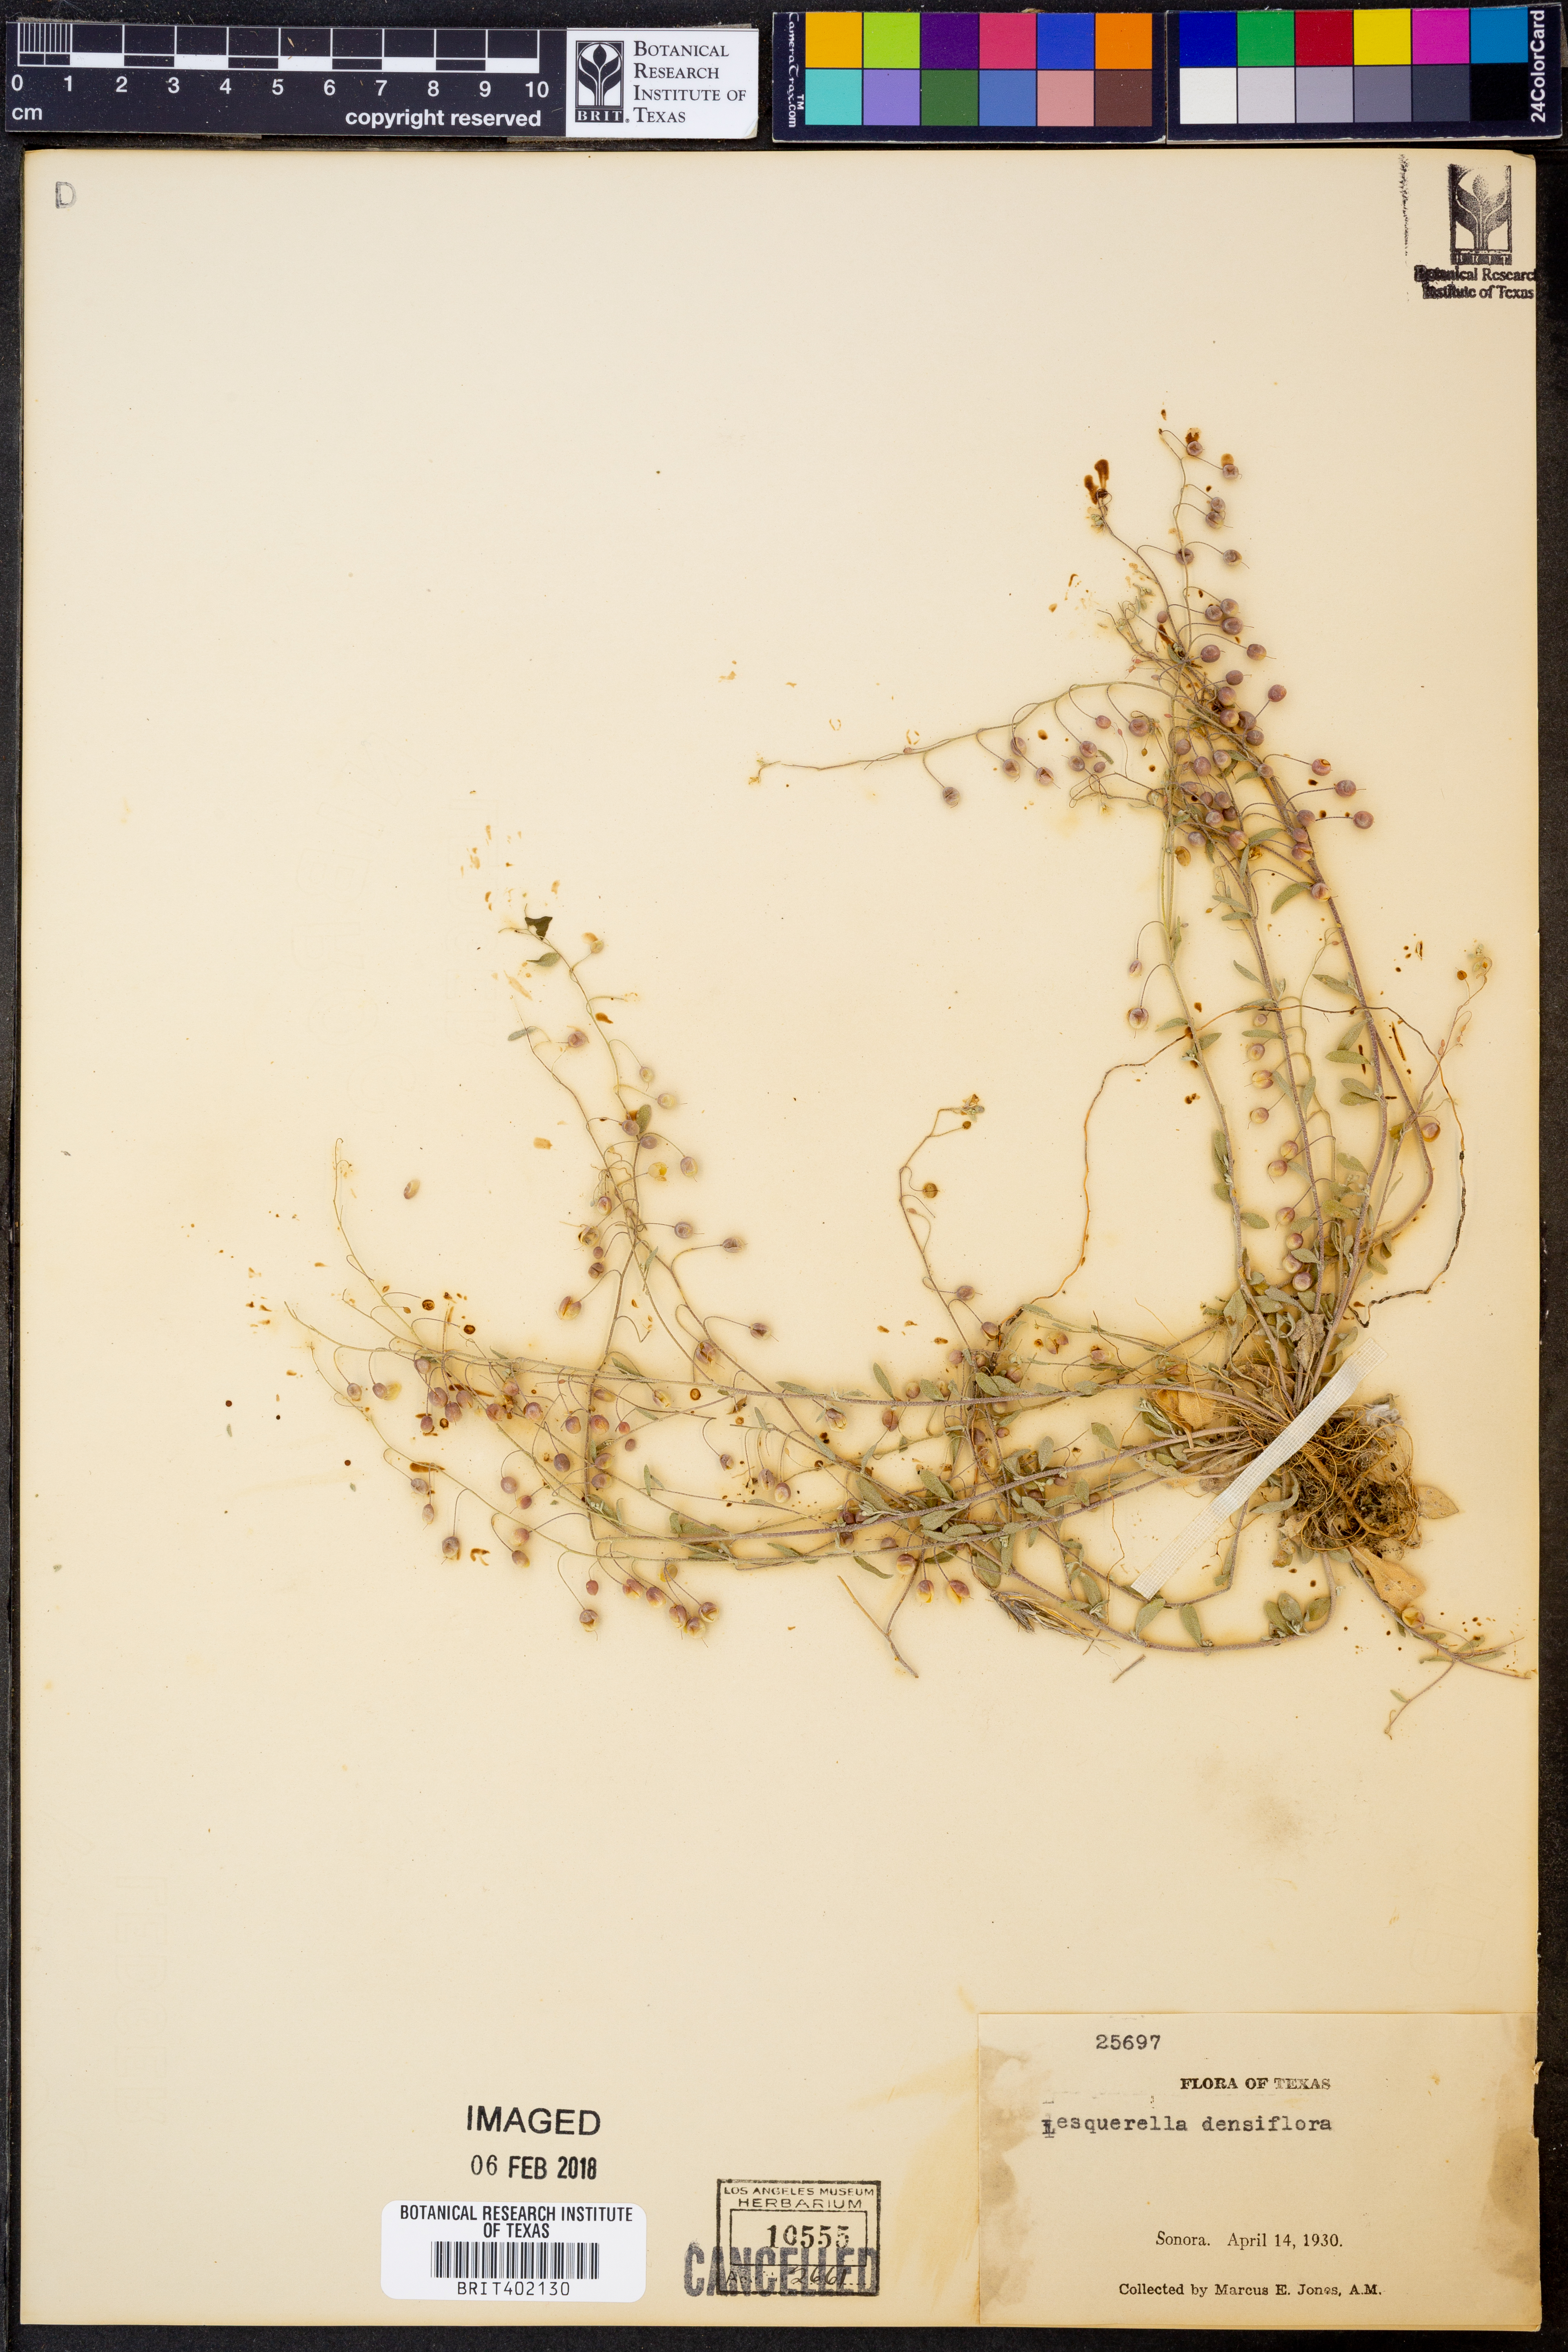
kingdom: Plantae
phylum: Tracheophyta
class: Magnoliopsida
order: Brassicales
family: Brassicaceae
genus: Physaria
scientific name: Physaria densiflora
